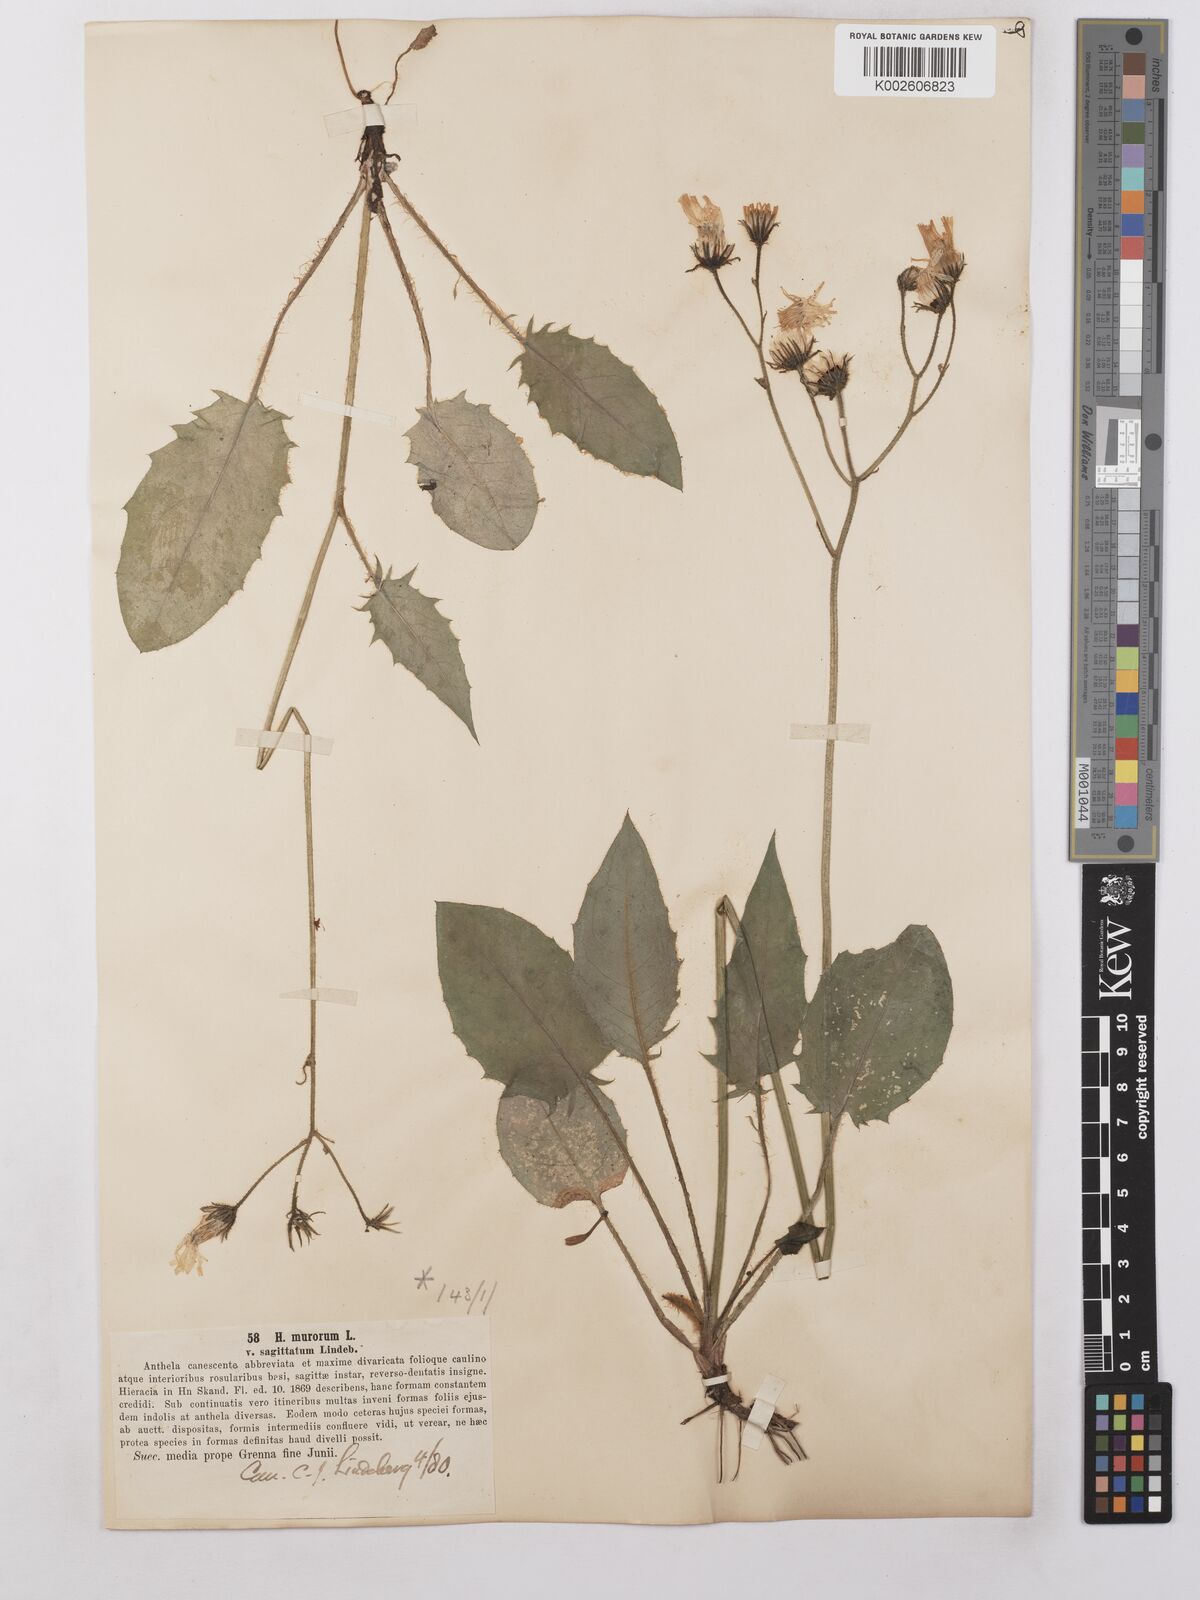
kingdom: Plantae
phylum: Tracheophyta
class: Magnoliopsida
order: Asterales
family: Asteraceae
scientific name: Asteraceae
